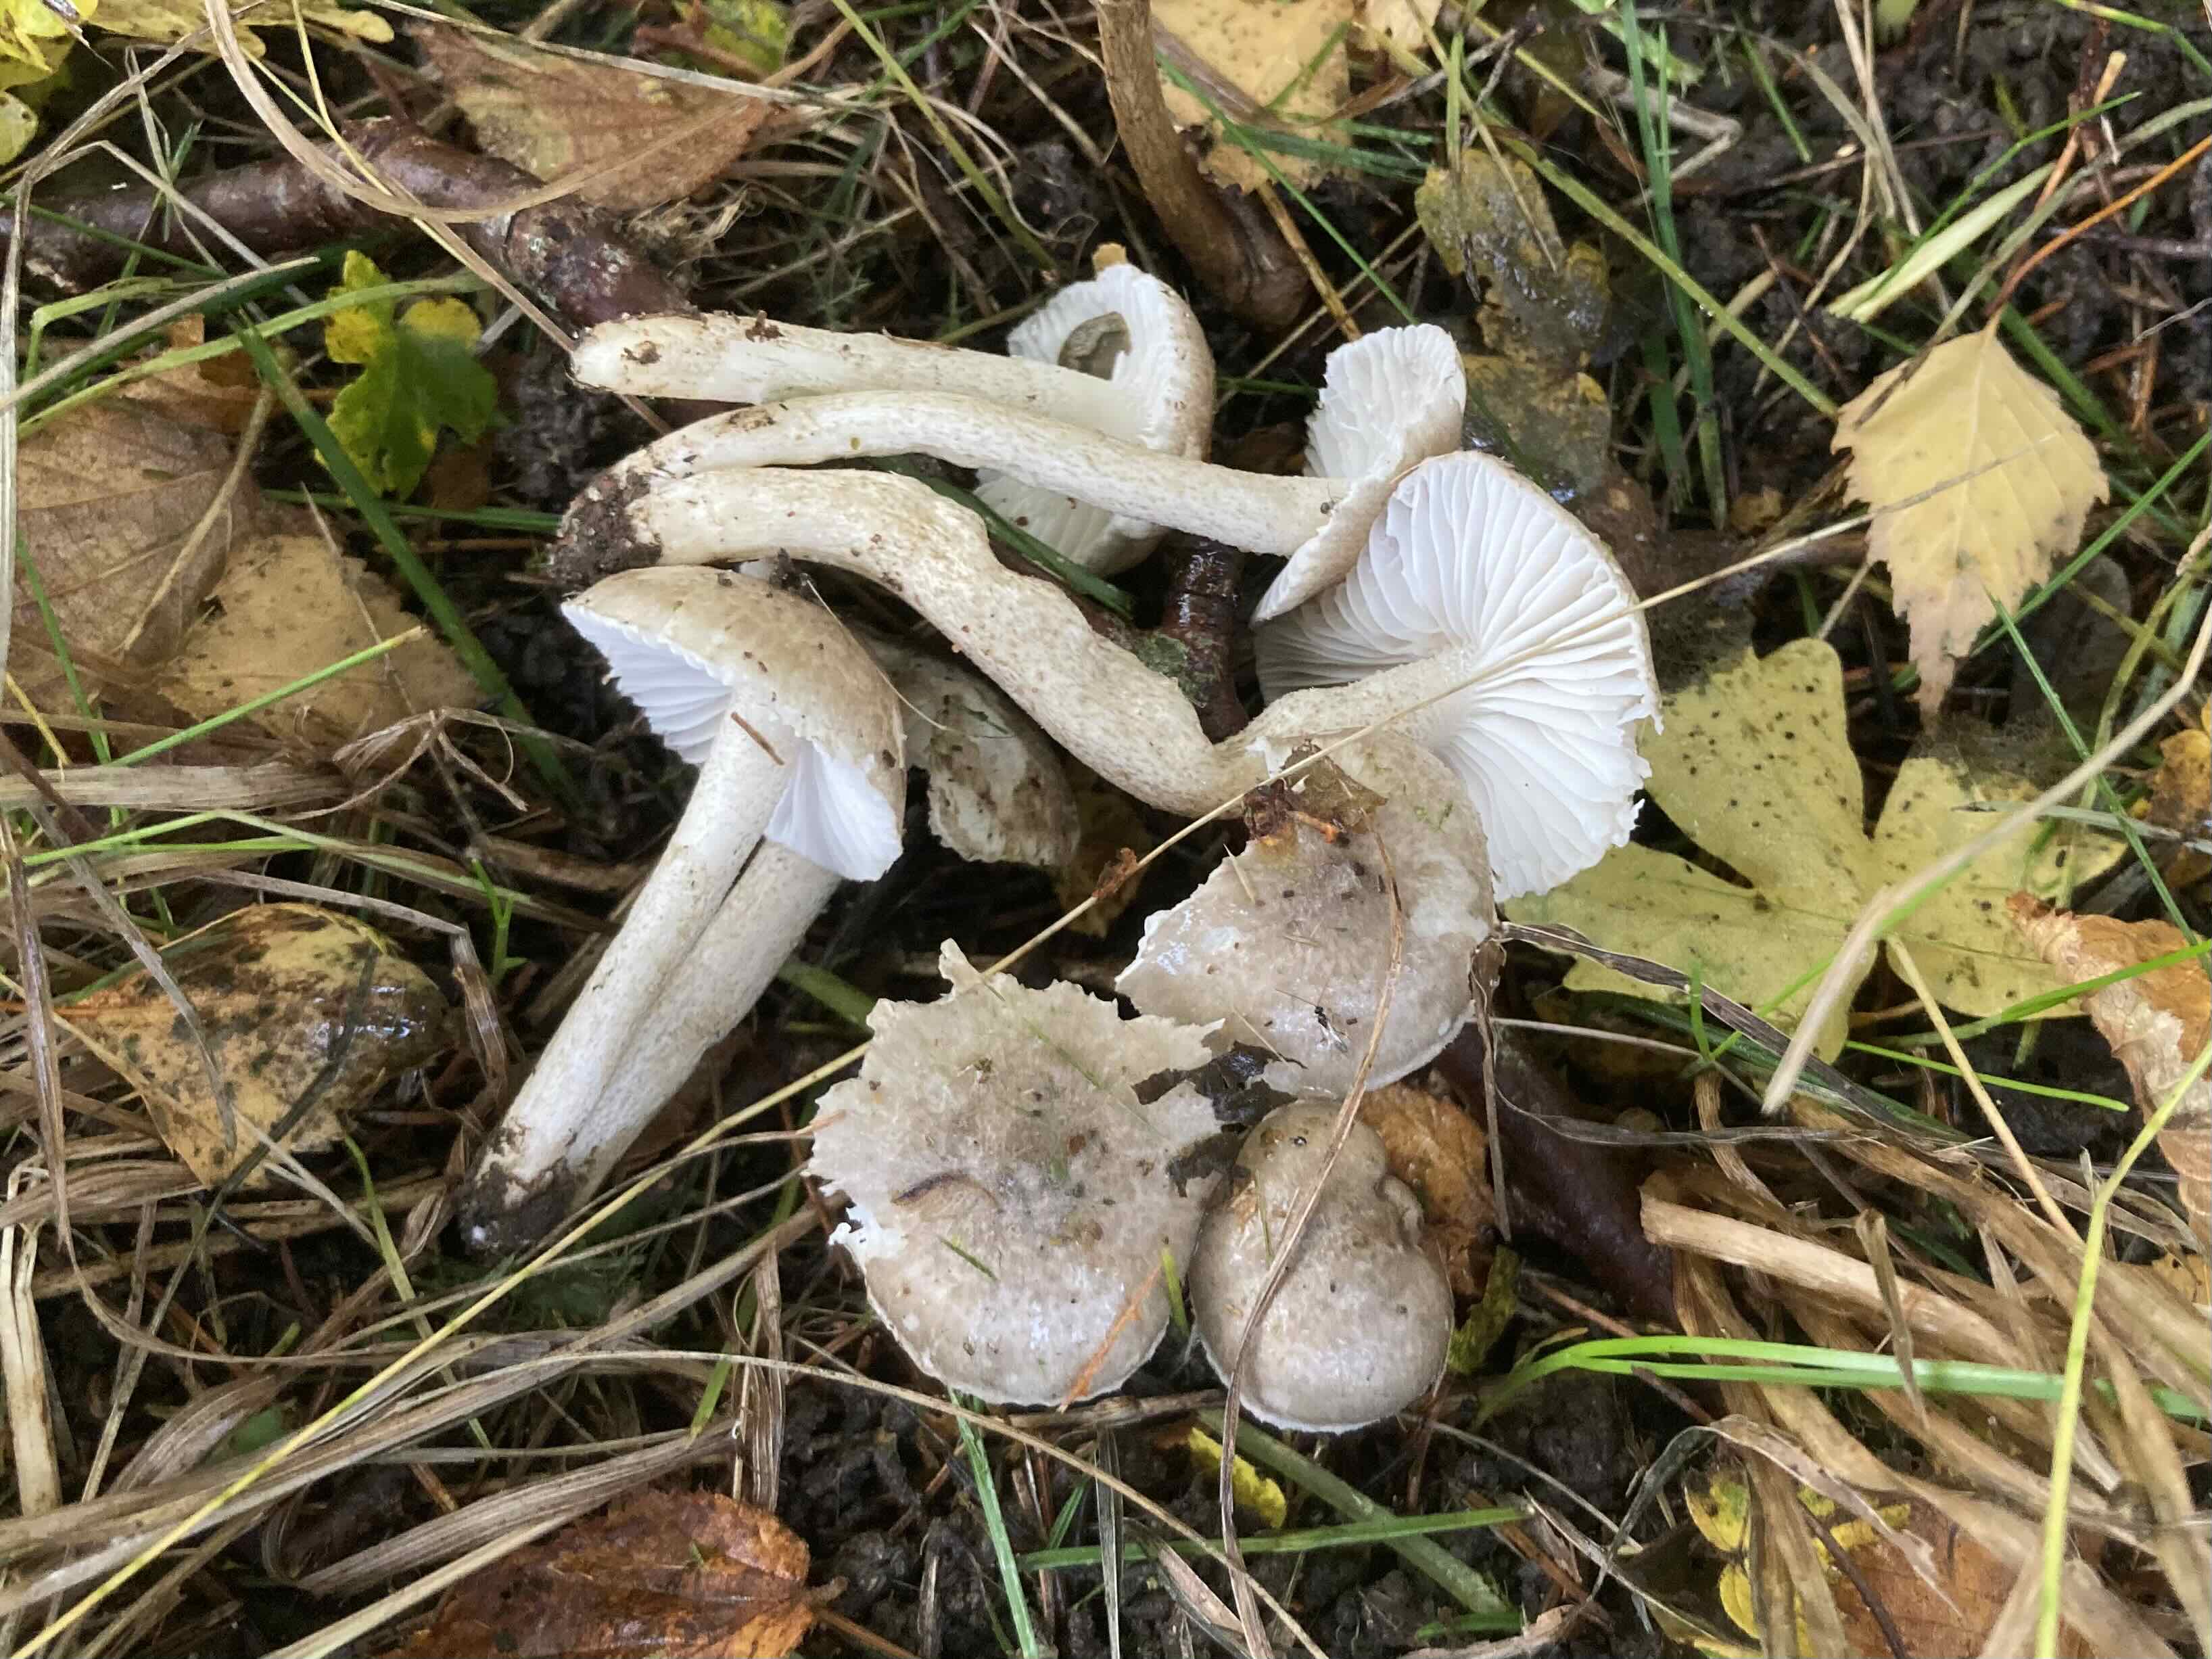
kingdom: Fungi
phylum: Basidiomycota
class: Agaricomycetes
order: Agaricales
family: Hygrophoraceae
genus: Hygrophorus
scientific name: Hygrophorus pustulatus
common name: mørkprikket sneglehat
